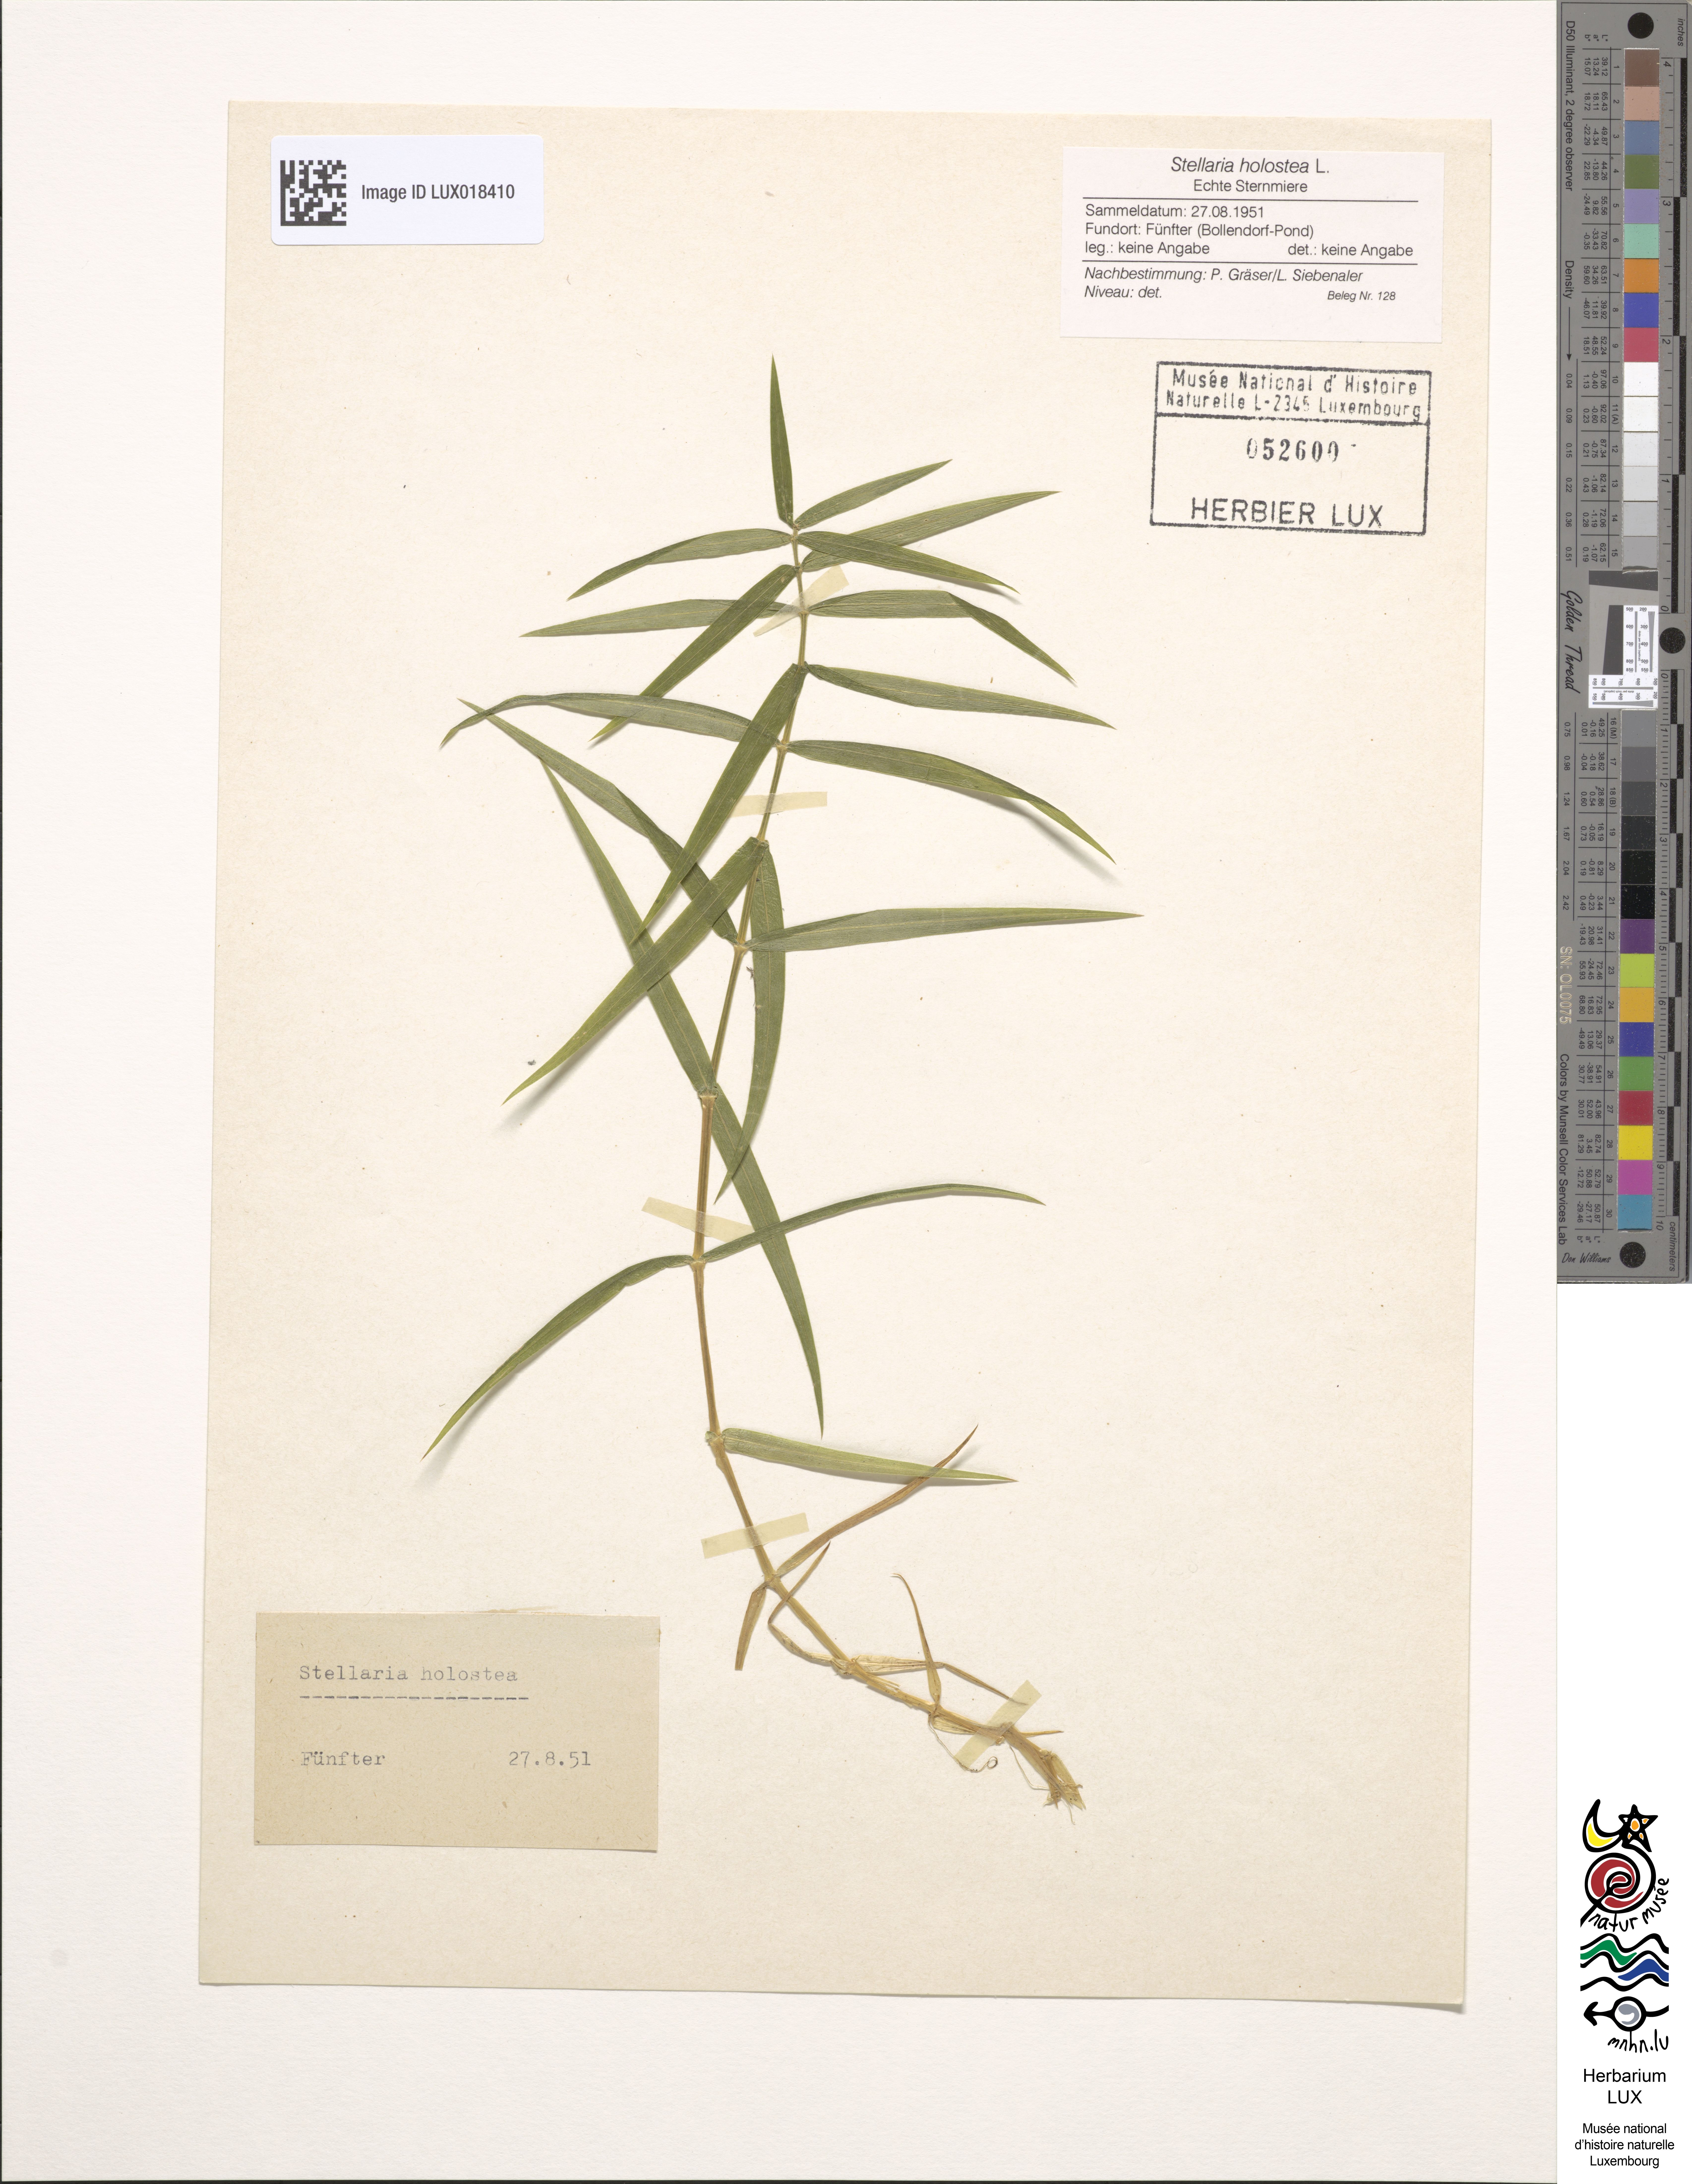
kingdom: Plantae
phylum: Tracheophyta
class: Magnoliopsida
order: Caryophyllales
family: Caryophyllaceae
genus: Rabelera
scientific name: Rabelera holostea
